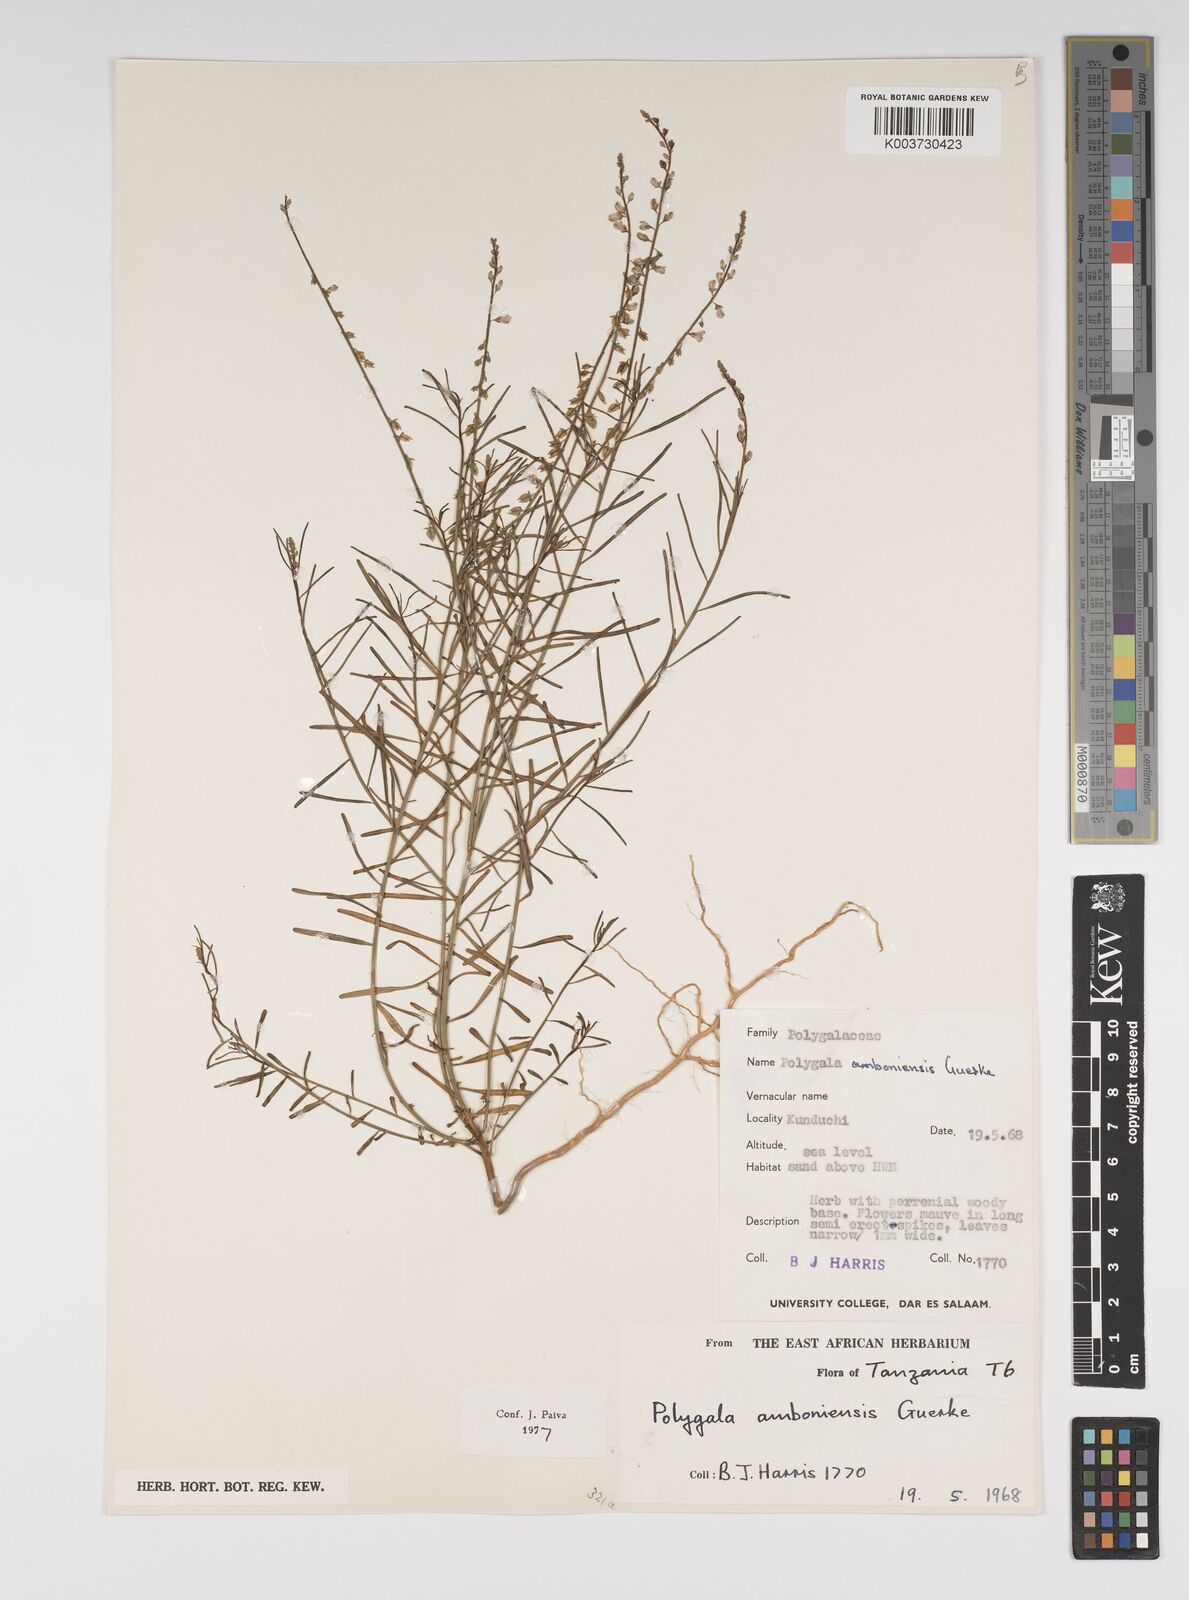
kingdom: Plantae
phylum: Tracheophyta
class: Magnoliopsida
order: Fabales
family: Polygalaceae
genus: Polygala
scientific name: Polygala amboniensis
